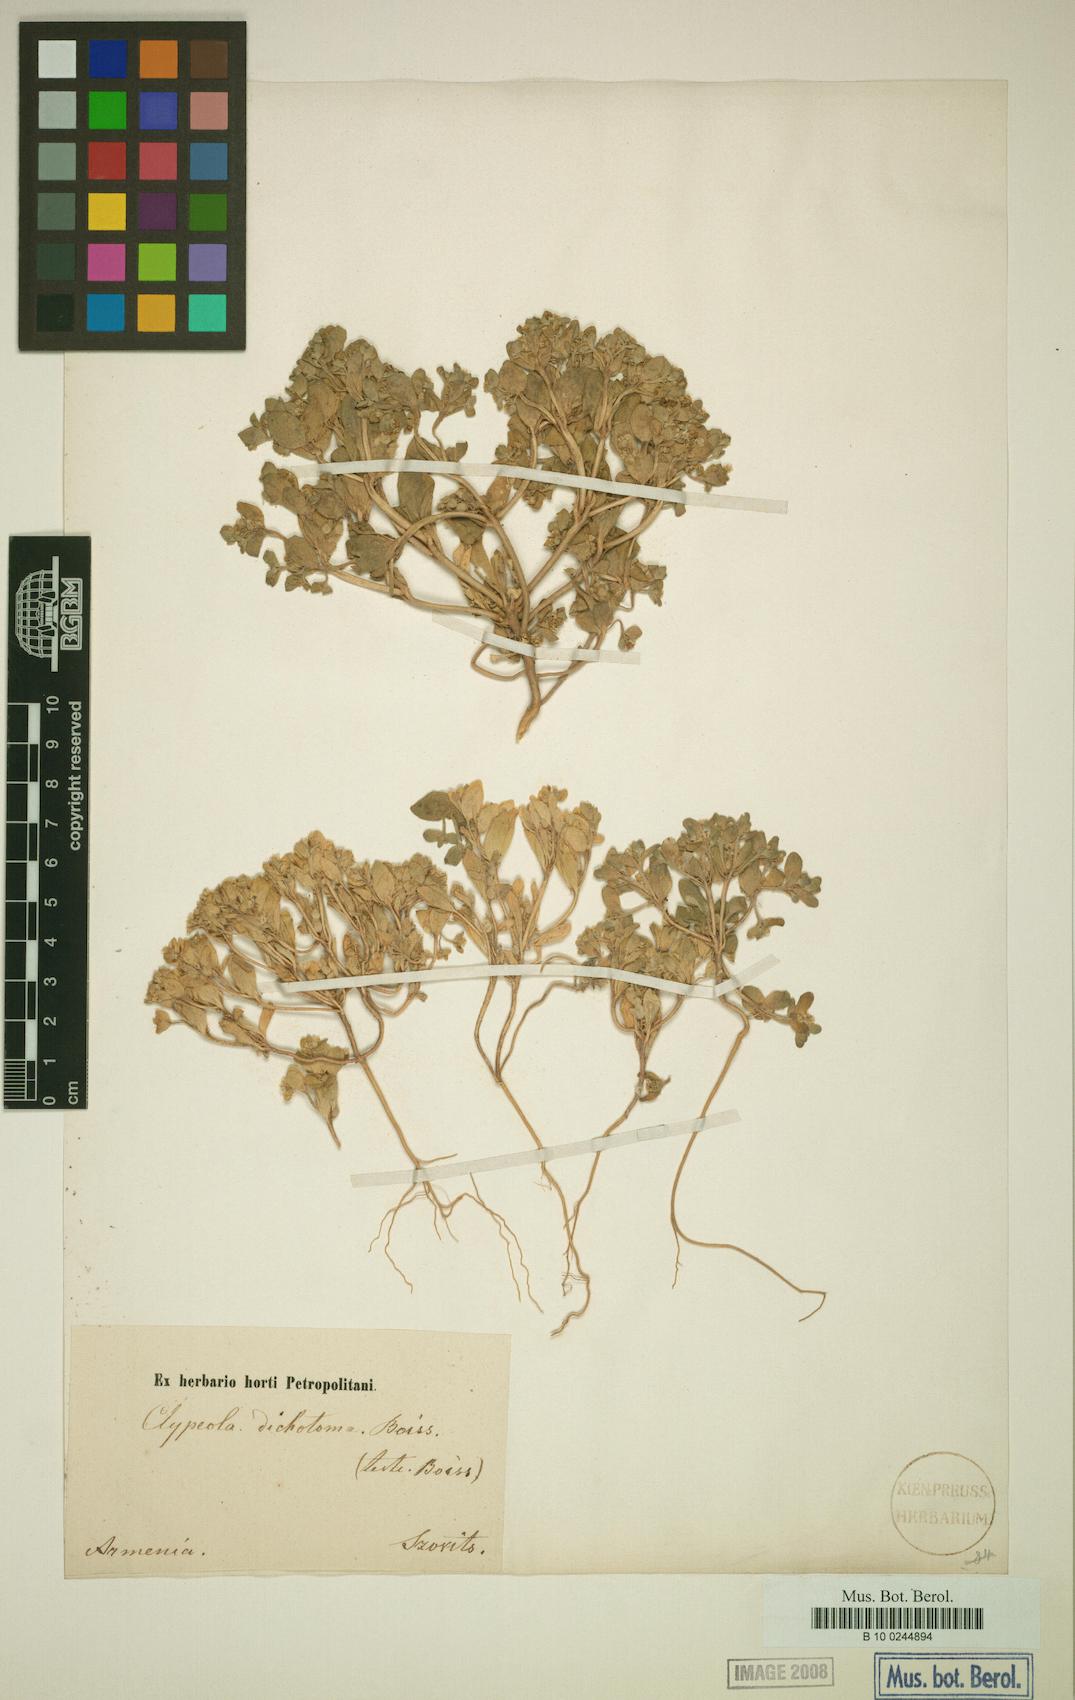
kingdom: Plantae
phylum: Tracheophyta
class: Magnoliopsida
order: Brassicales
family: Brassicaceae
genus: Clypeola
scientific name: Clypeola dichotoma
